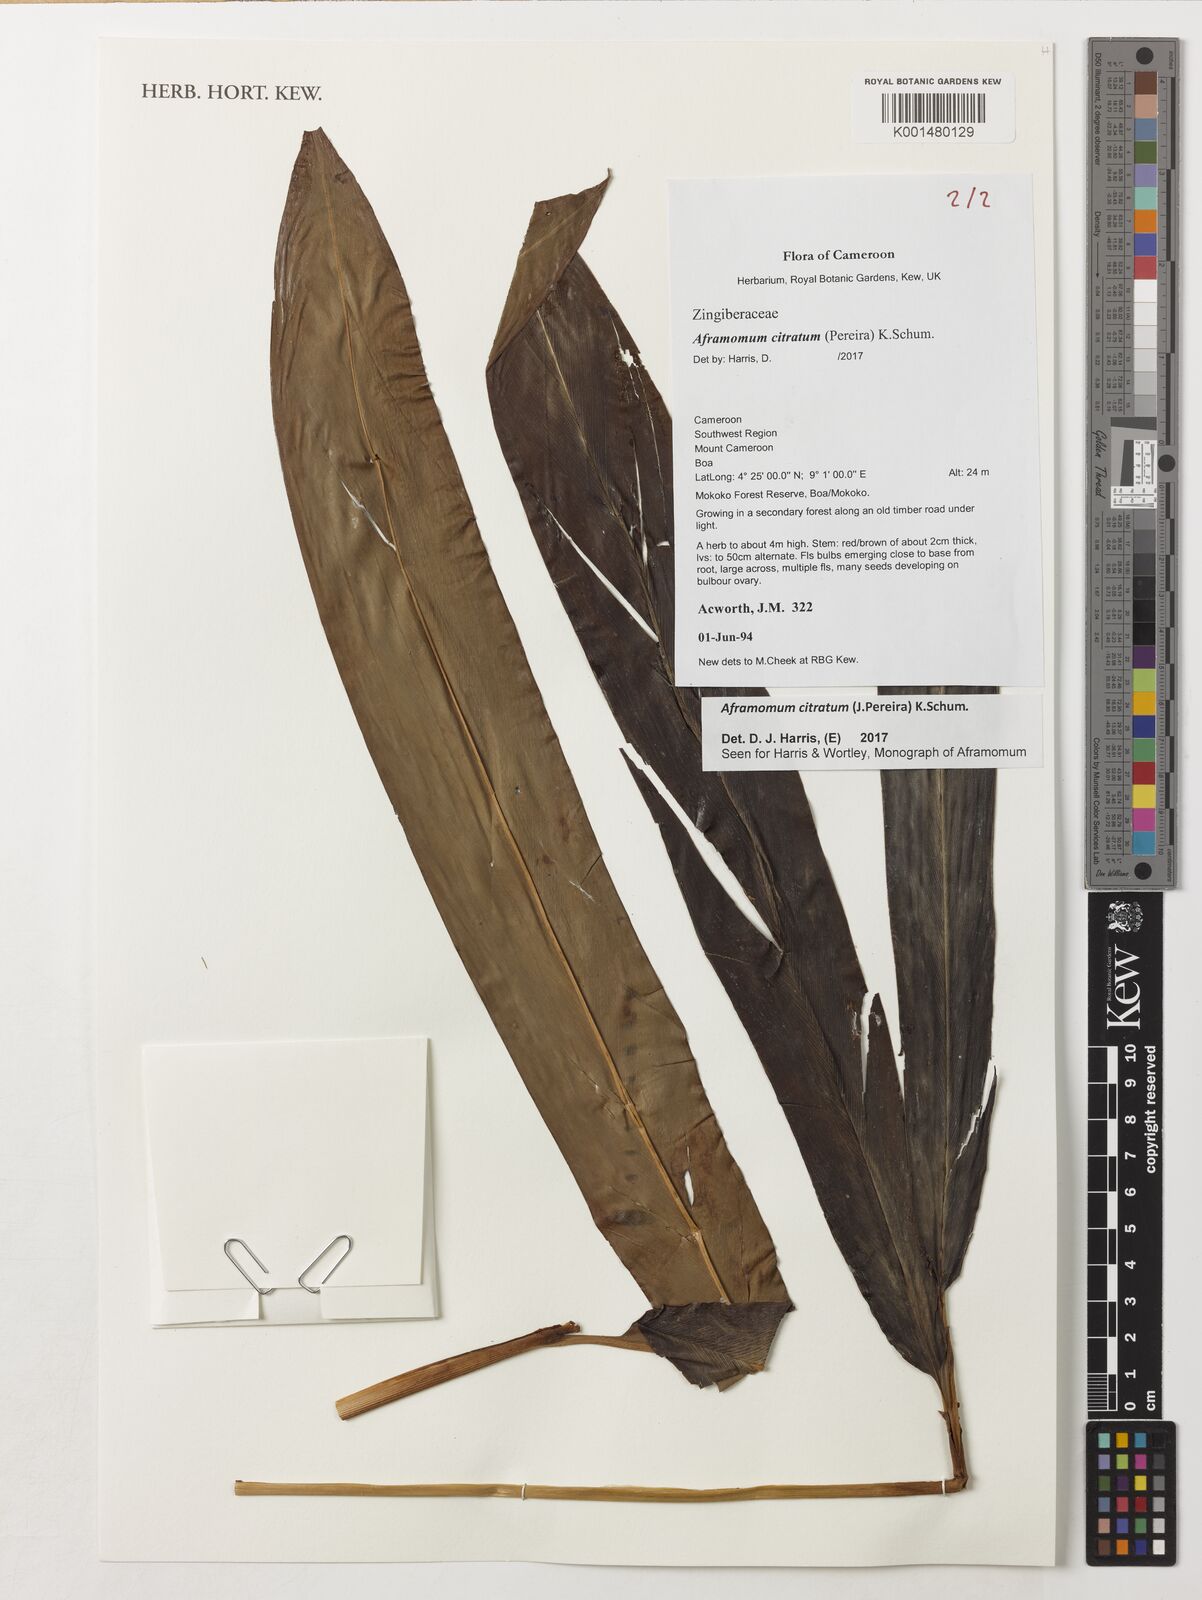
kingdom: Plantae
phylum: Tracheophyta
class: Liliopsida
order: Zingiberales
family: Zingiberaceae
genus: Aframomum
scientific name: Aframomum citratum
